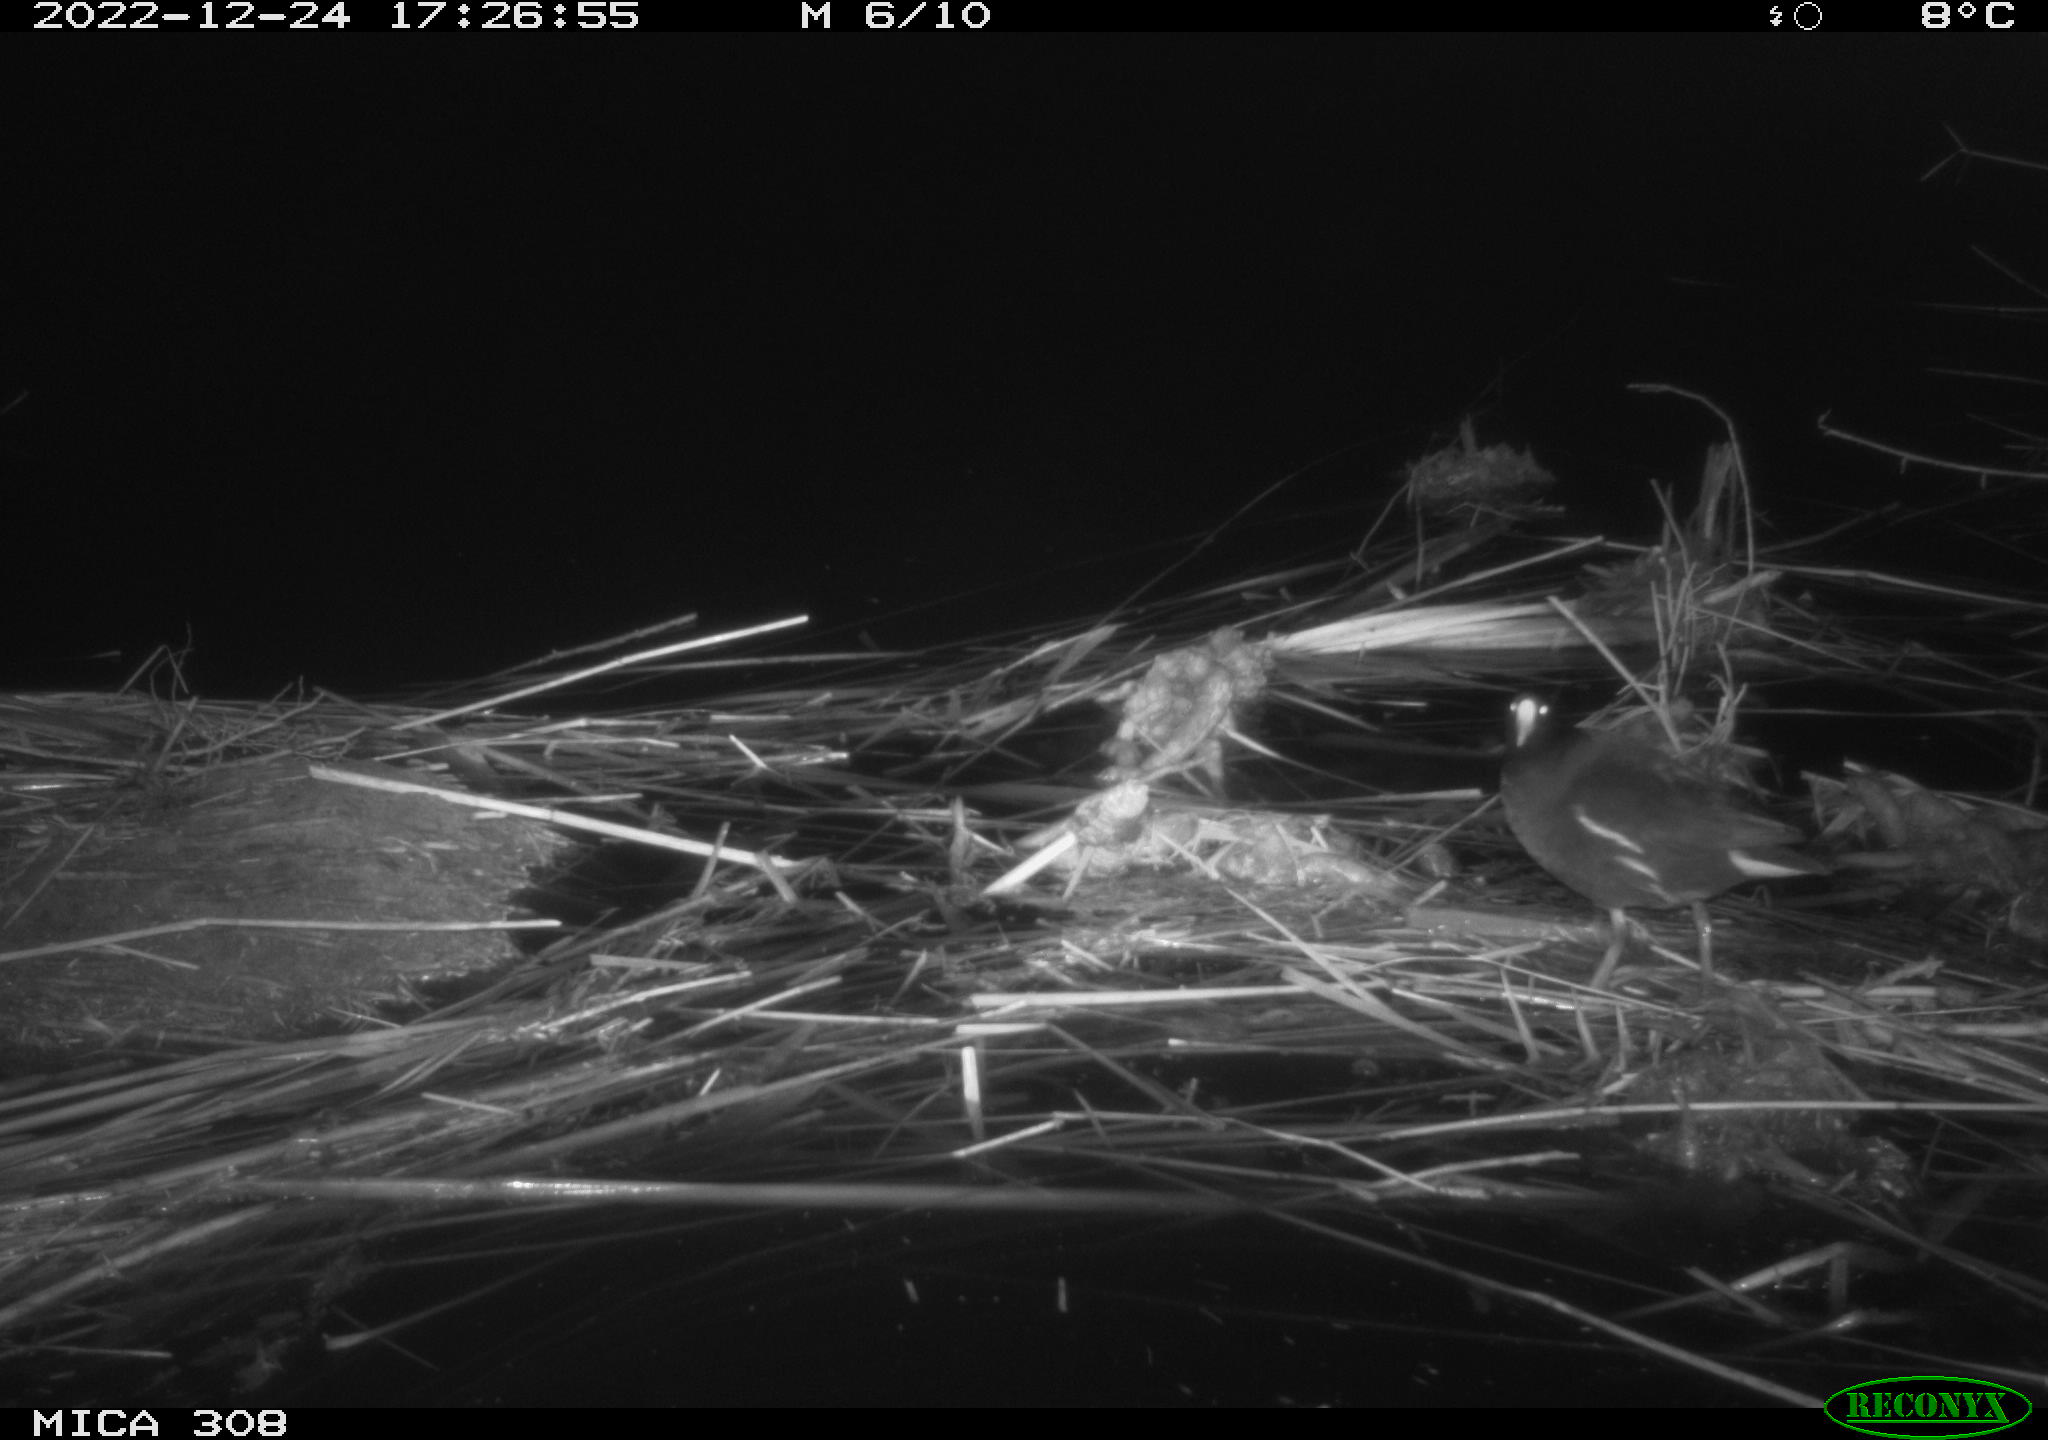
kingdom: Animalia
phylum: Chordata
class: Aves
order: Gruiformes
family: Rallidae
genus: Gallinula
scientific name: Gallinula chloropus
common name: Common moorhen
